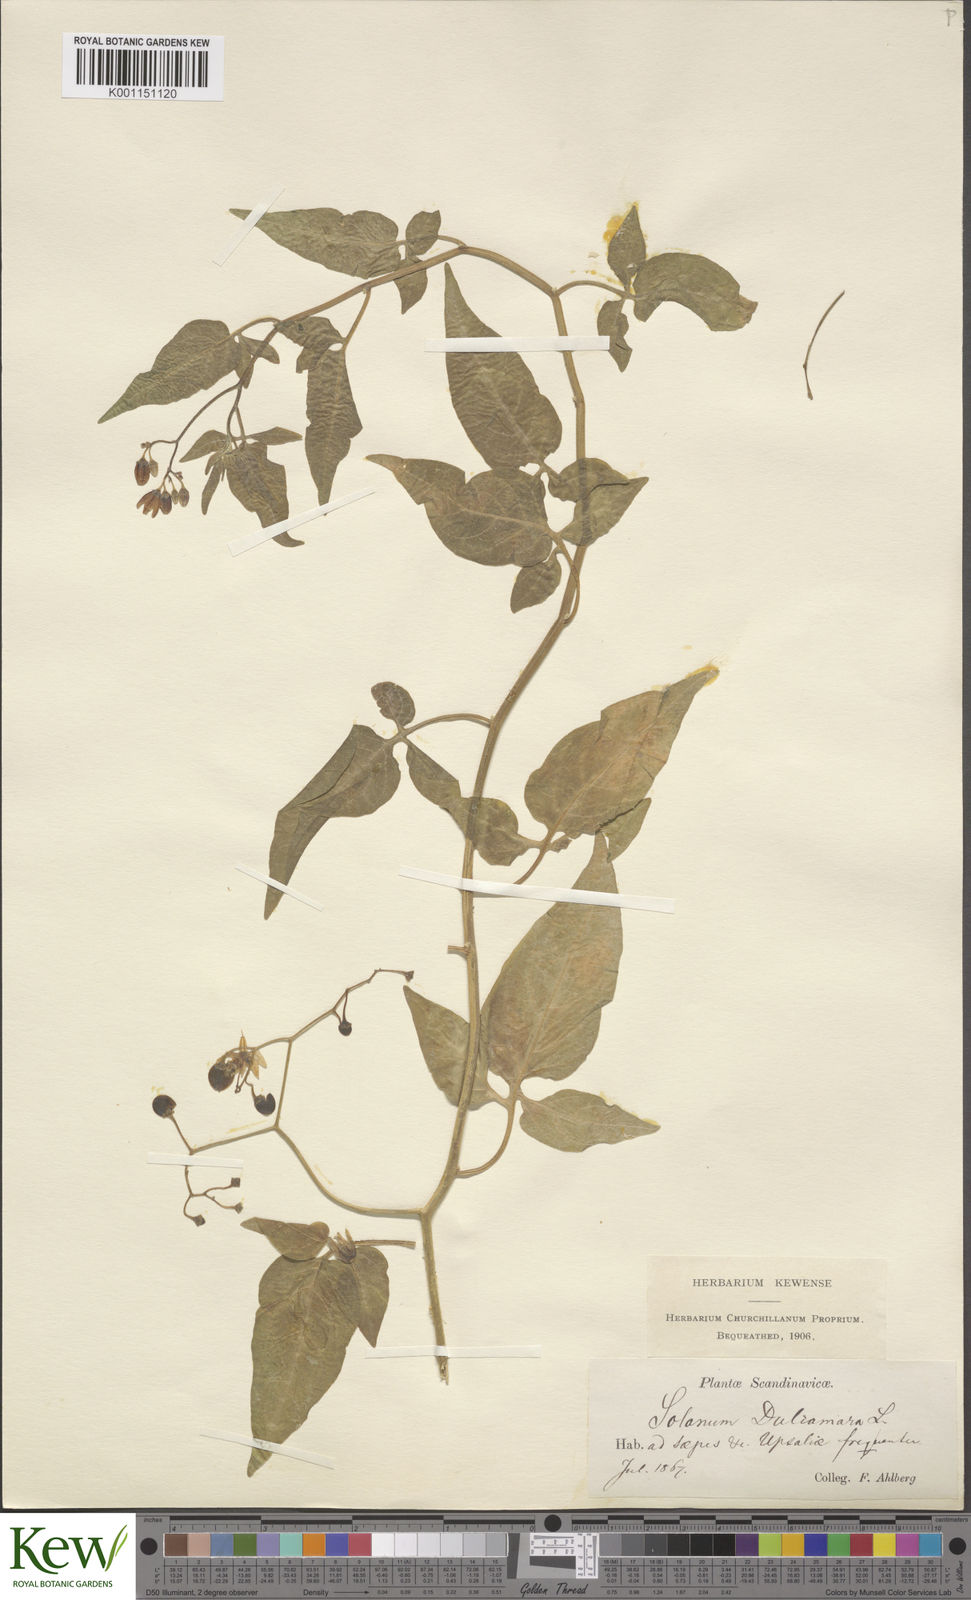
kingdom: Plantae
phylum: Tracheophyta
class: Magnoliopsida
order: Solanales
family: Solanaceae
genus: Solanum
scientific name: Solanum dulcamara
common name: Climbing nightshade
